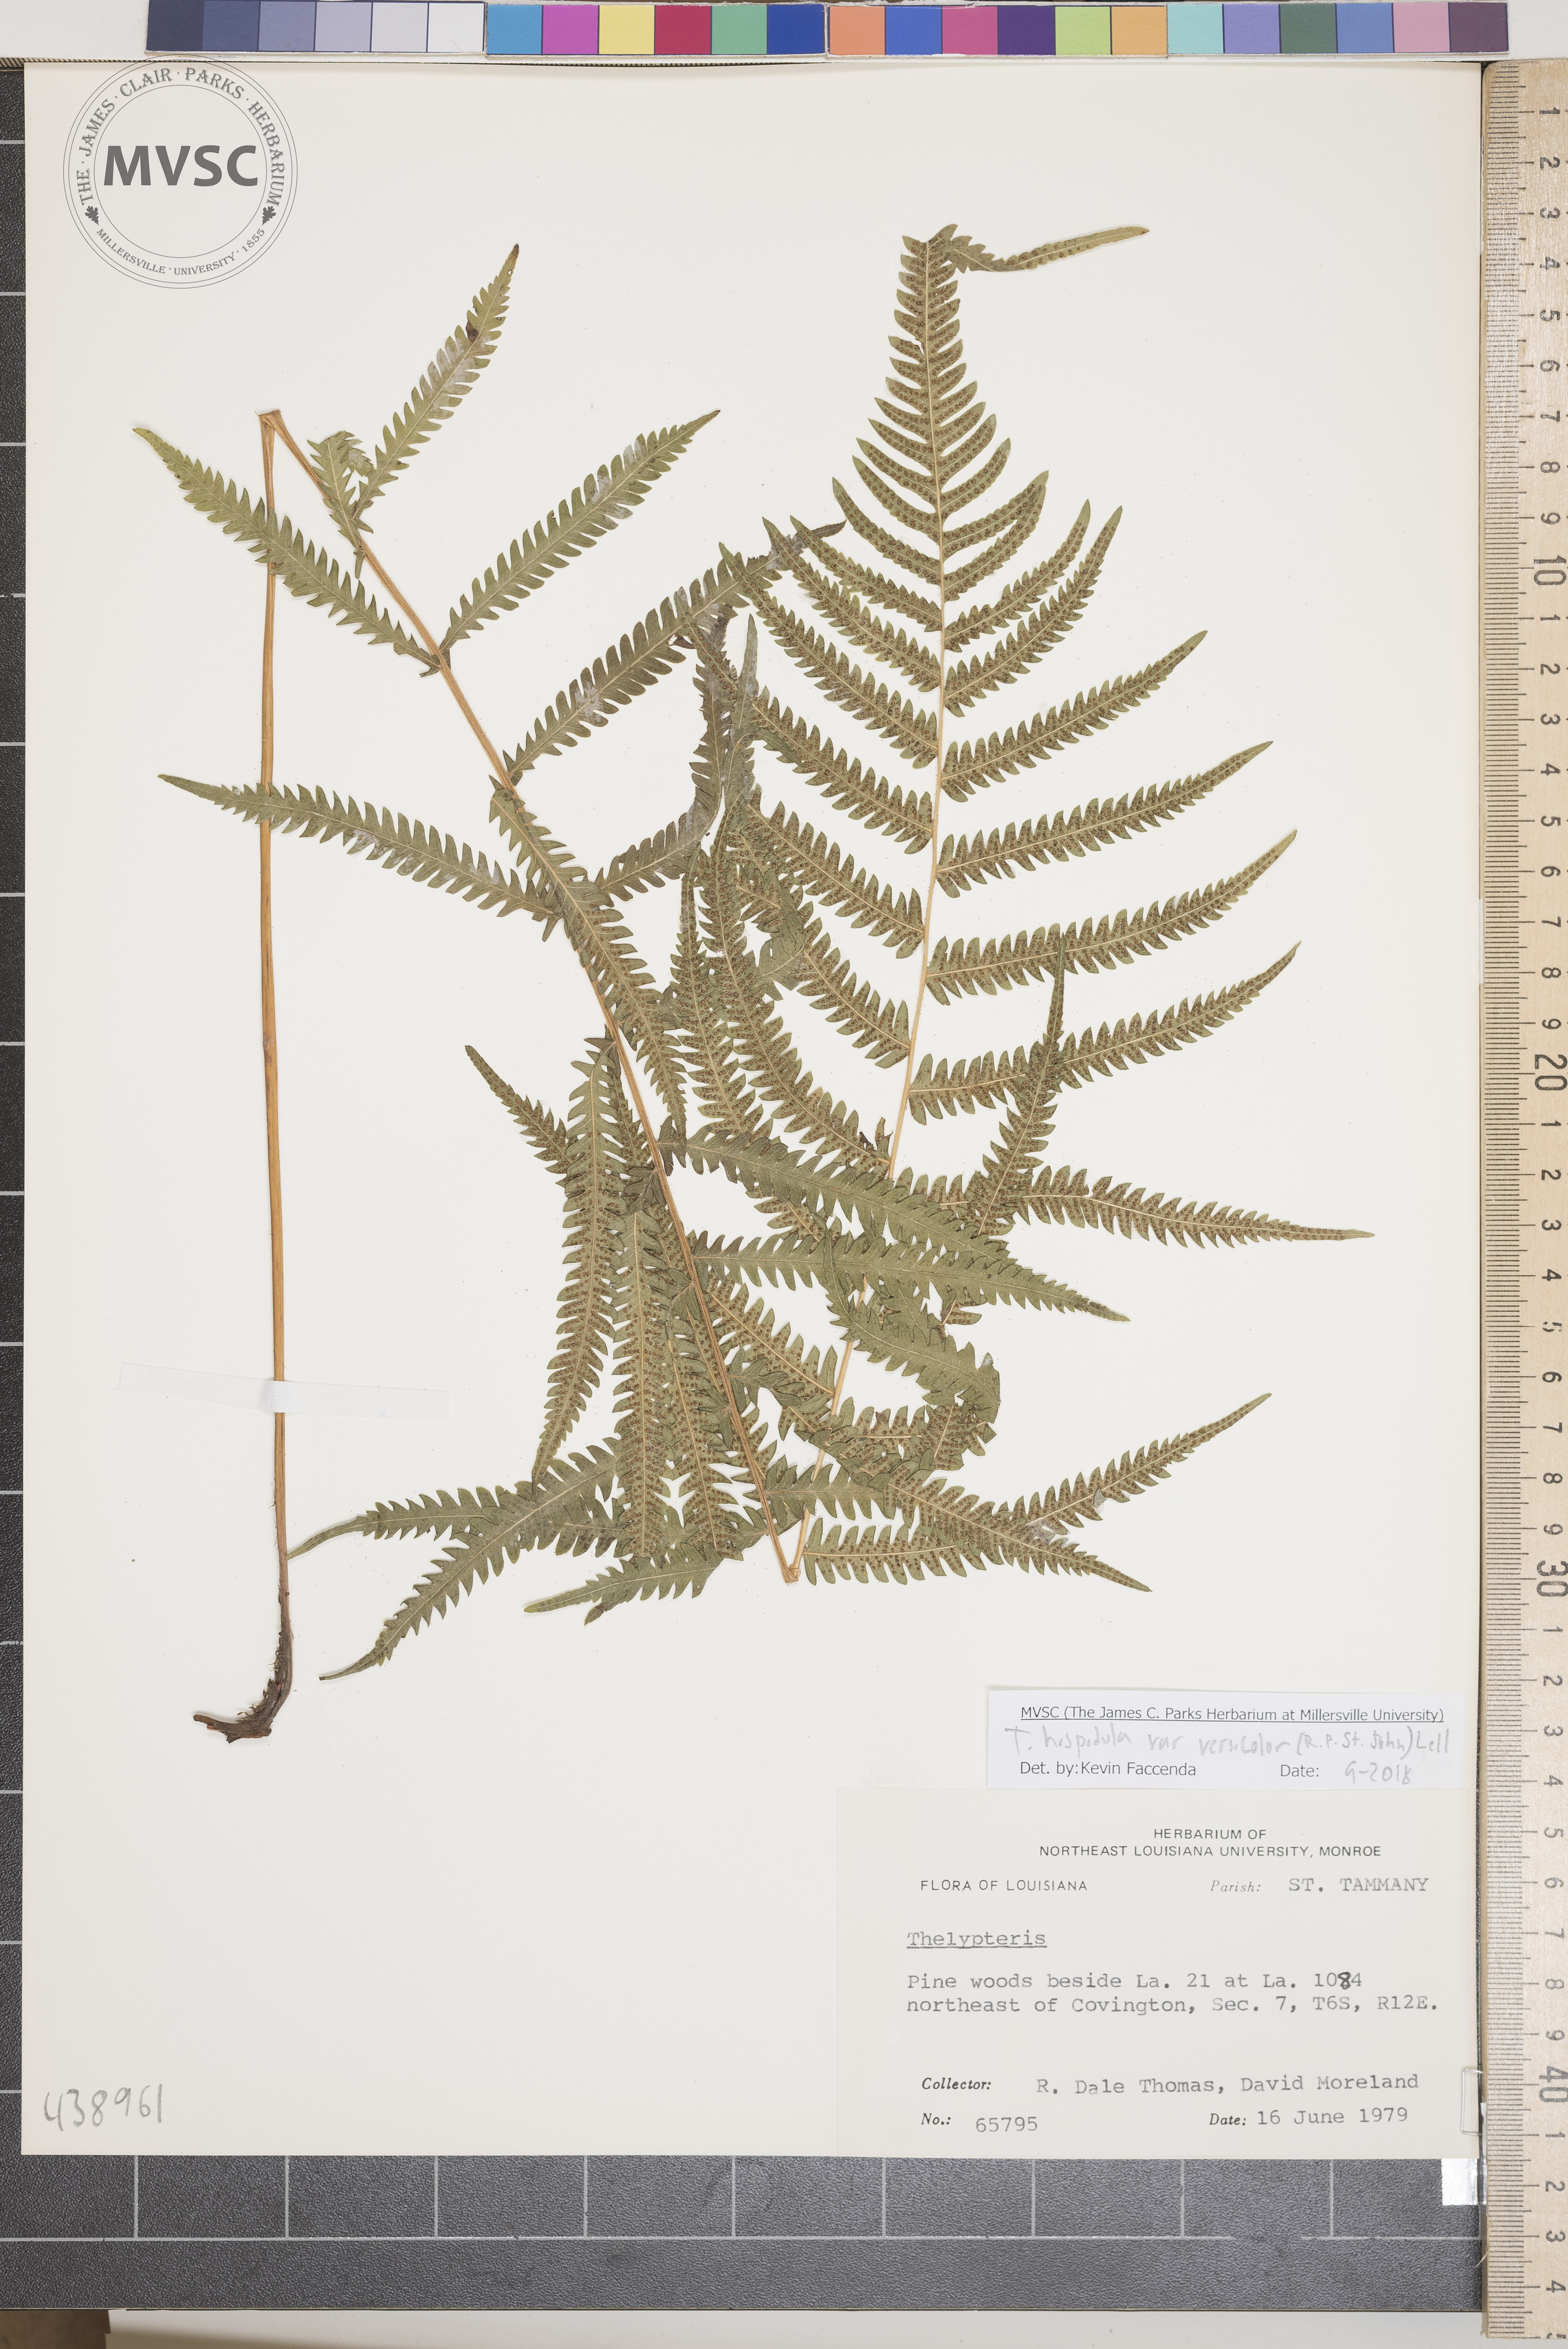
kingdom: Plantae
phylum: Tracheophyta
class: Polypodiopsida
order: Polypodiales
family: Thelypteridaceae
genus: Pelazoneuron
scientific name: Pelazoneuron kunthii
